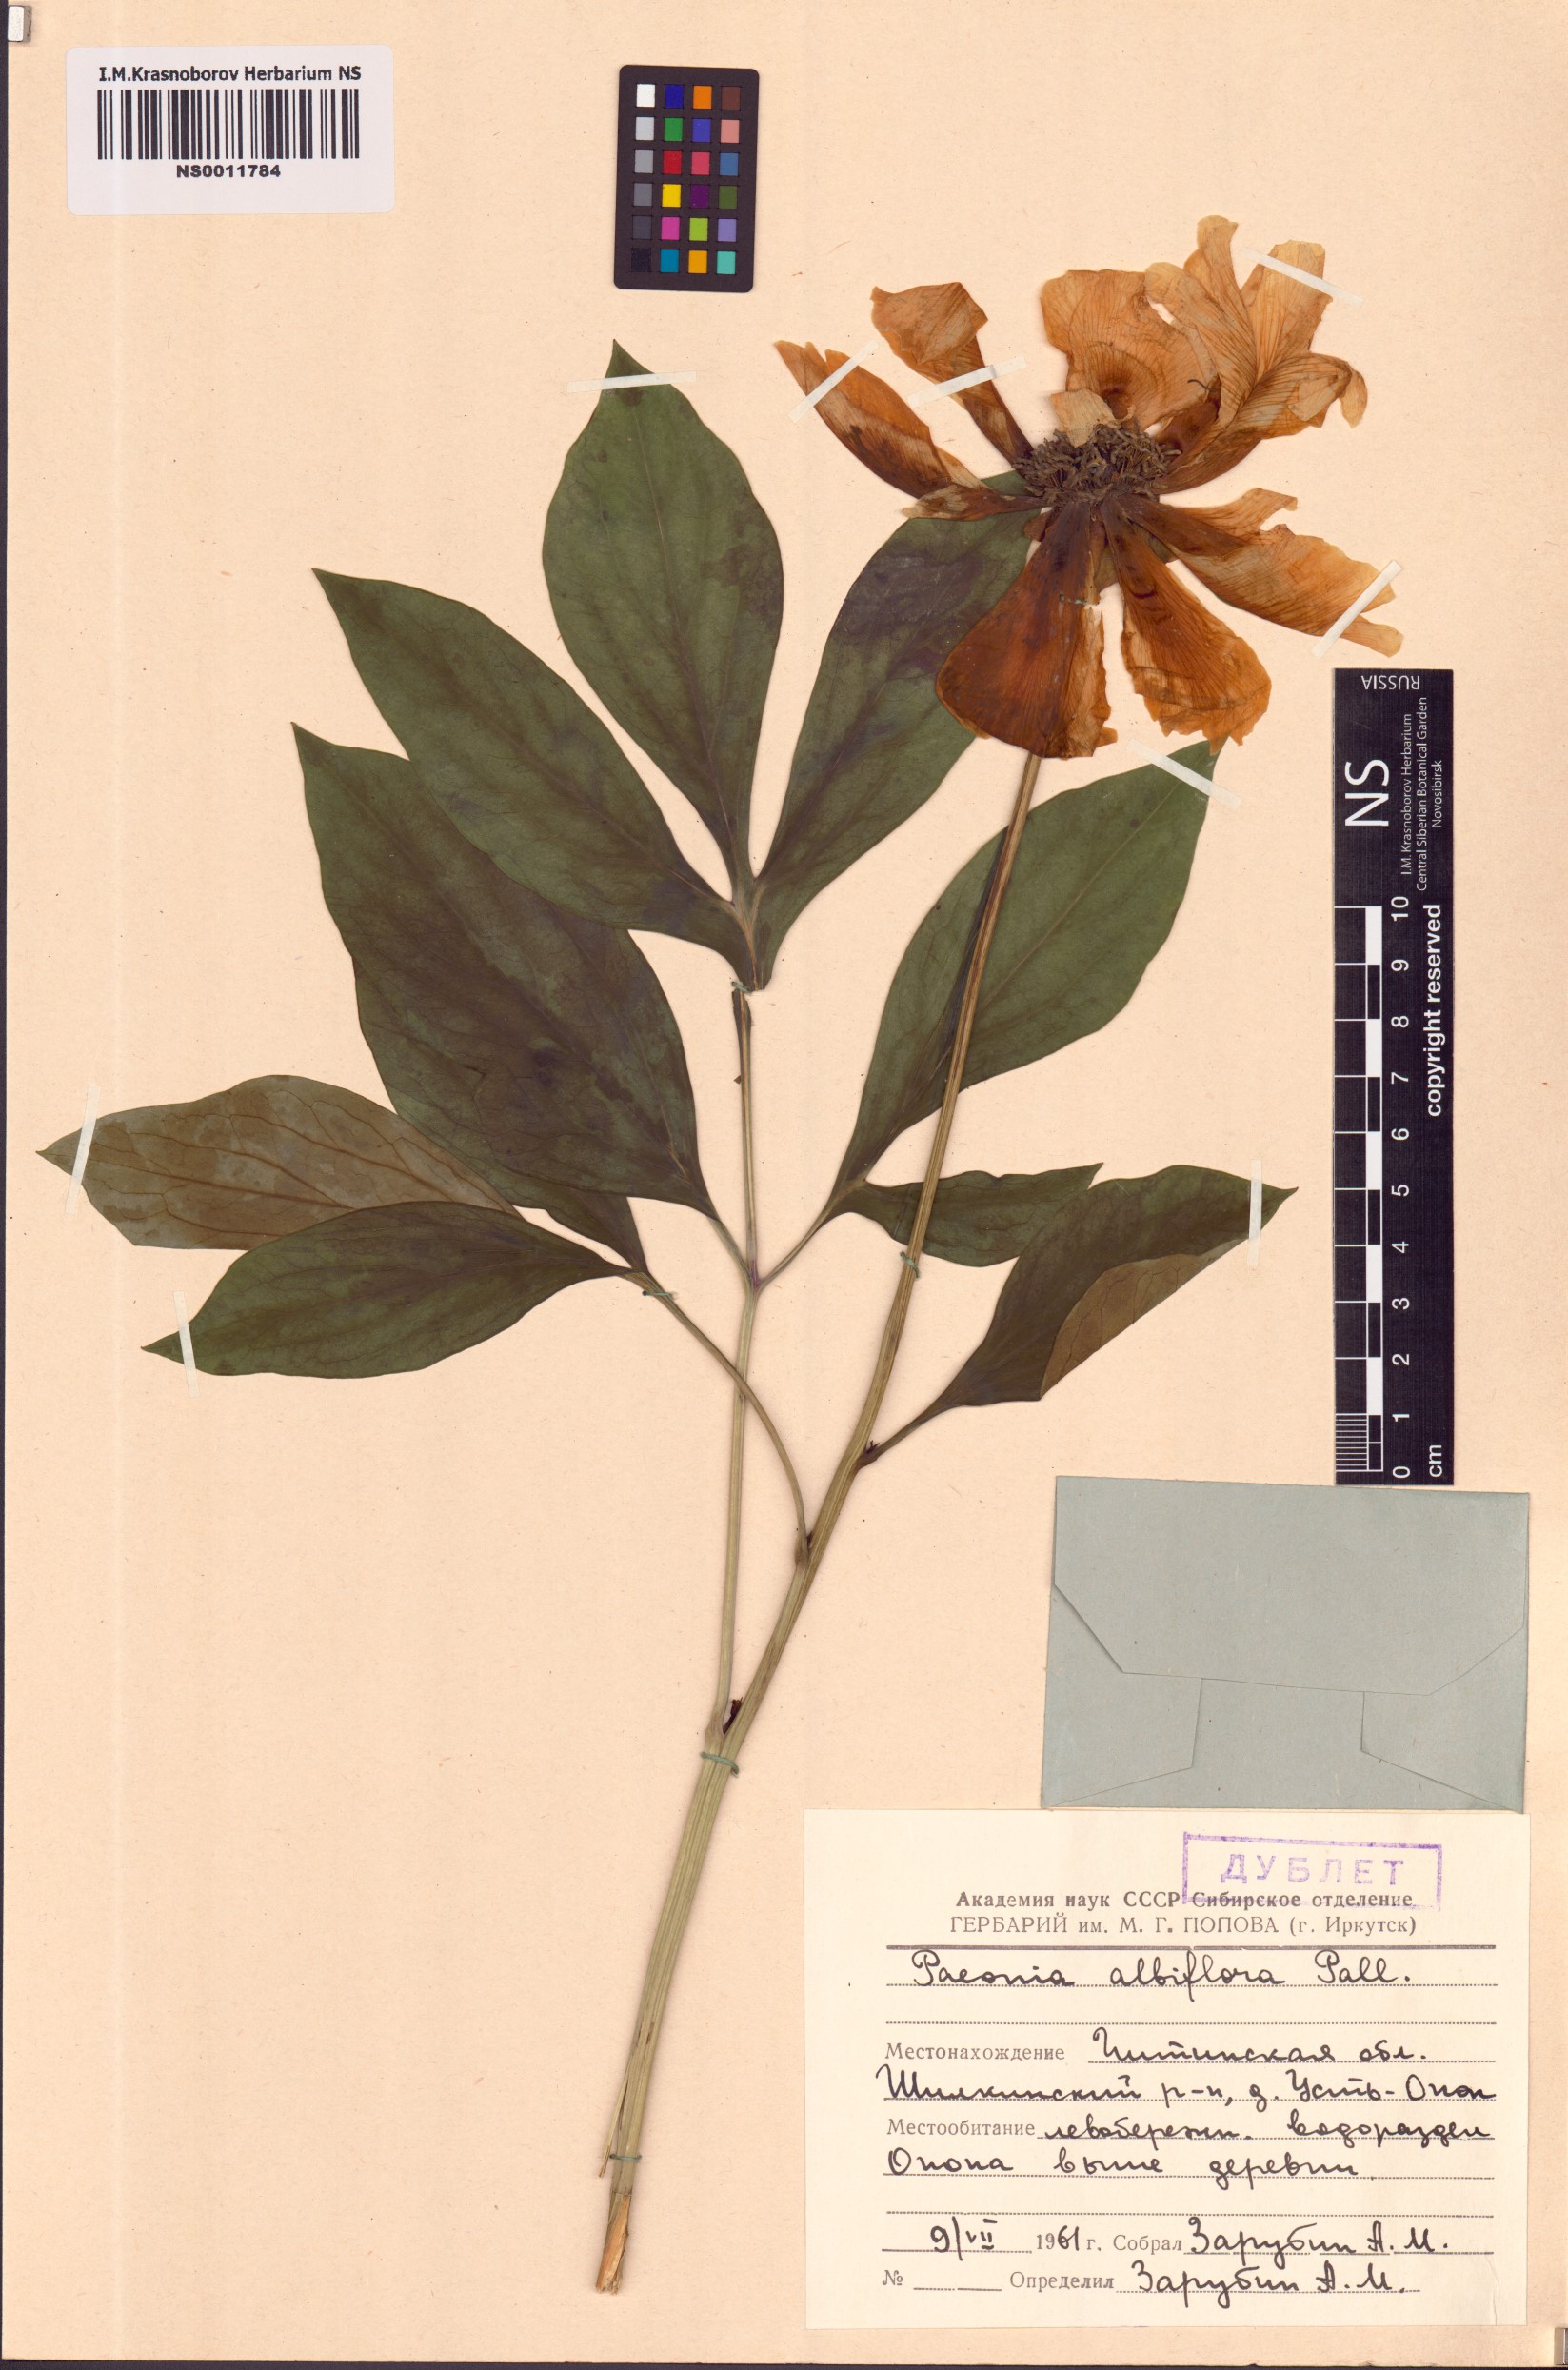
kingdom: Plantae
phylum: Tracheophyta
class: Magnoliopsida
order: Saxifragales
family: Paeoniaceae
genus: Paeonia
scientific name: Paeonia lactiflora
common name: Chinese peony
